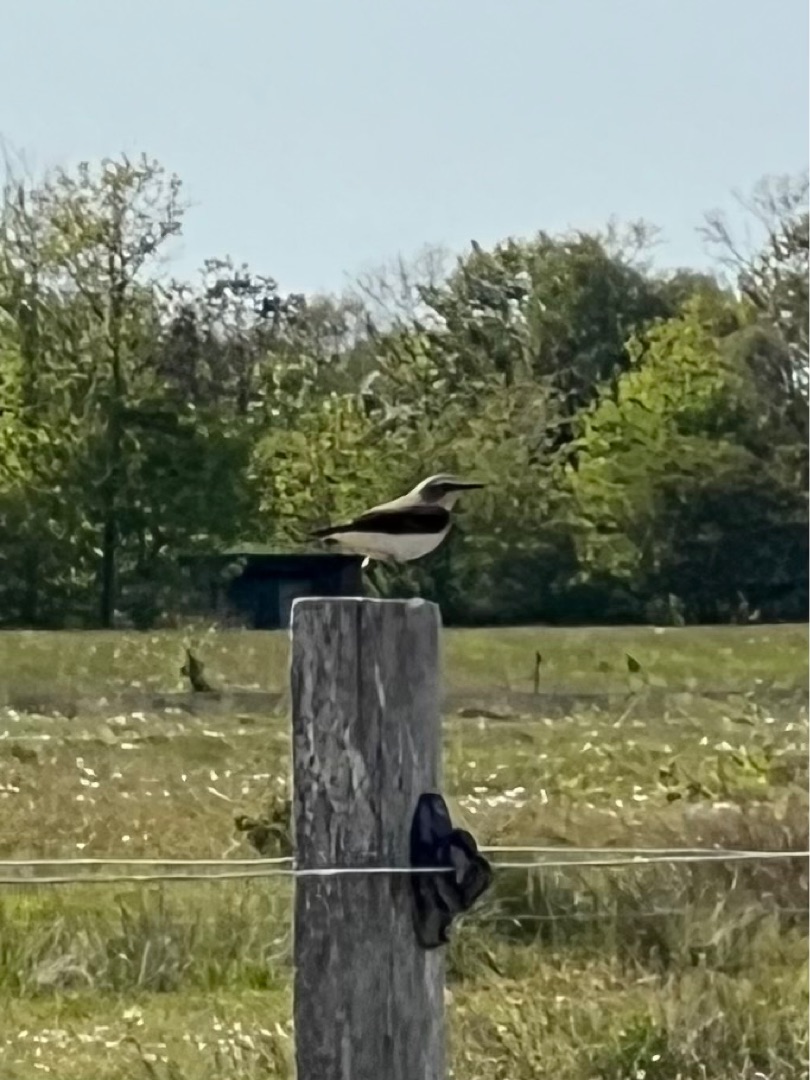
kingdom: Animalia
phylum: Chordata
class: Aves
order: Passeriformes
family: Muscicapidae
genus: Oenanthe
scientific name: Oenanthe oenanthe
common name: Stenpikker
